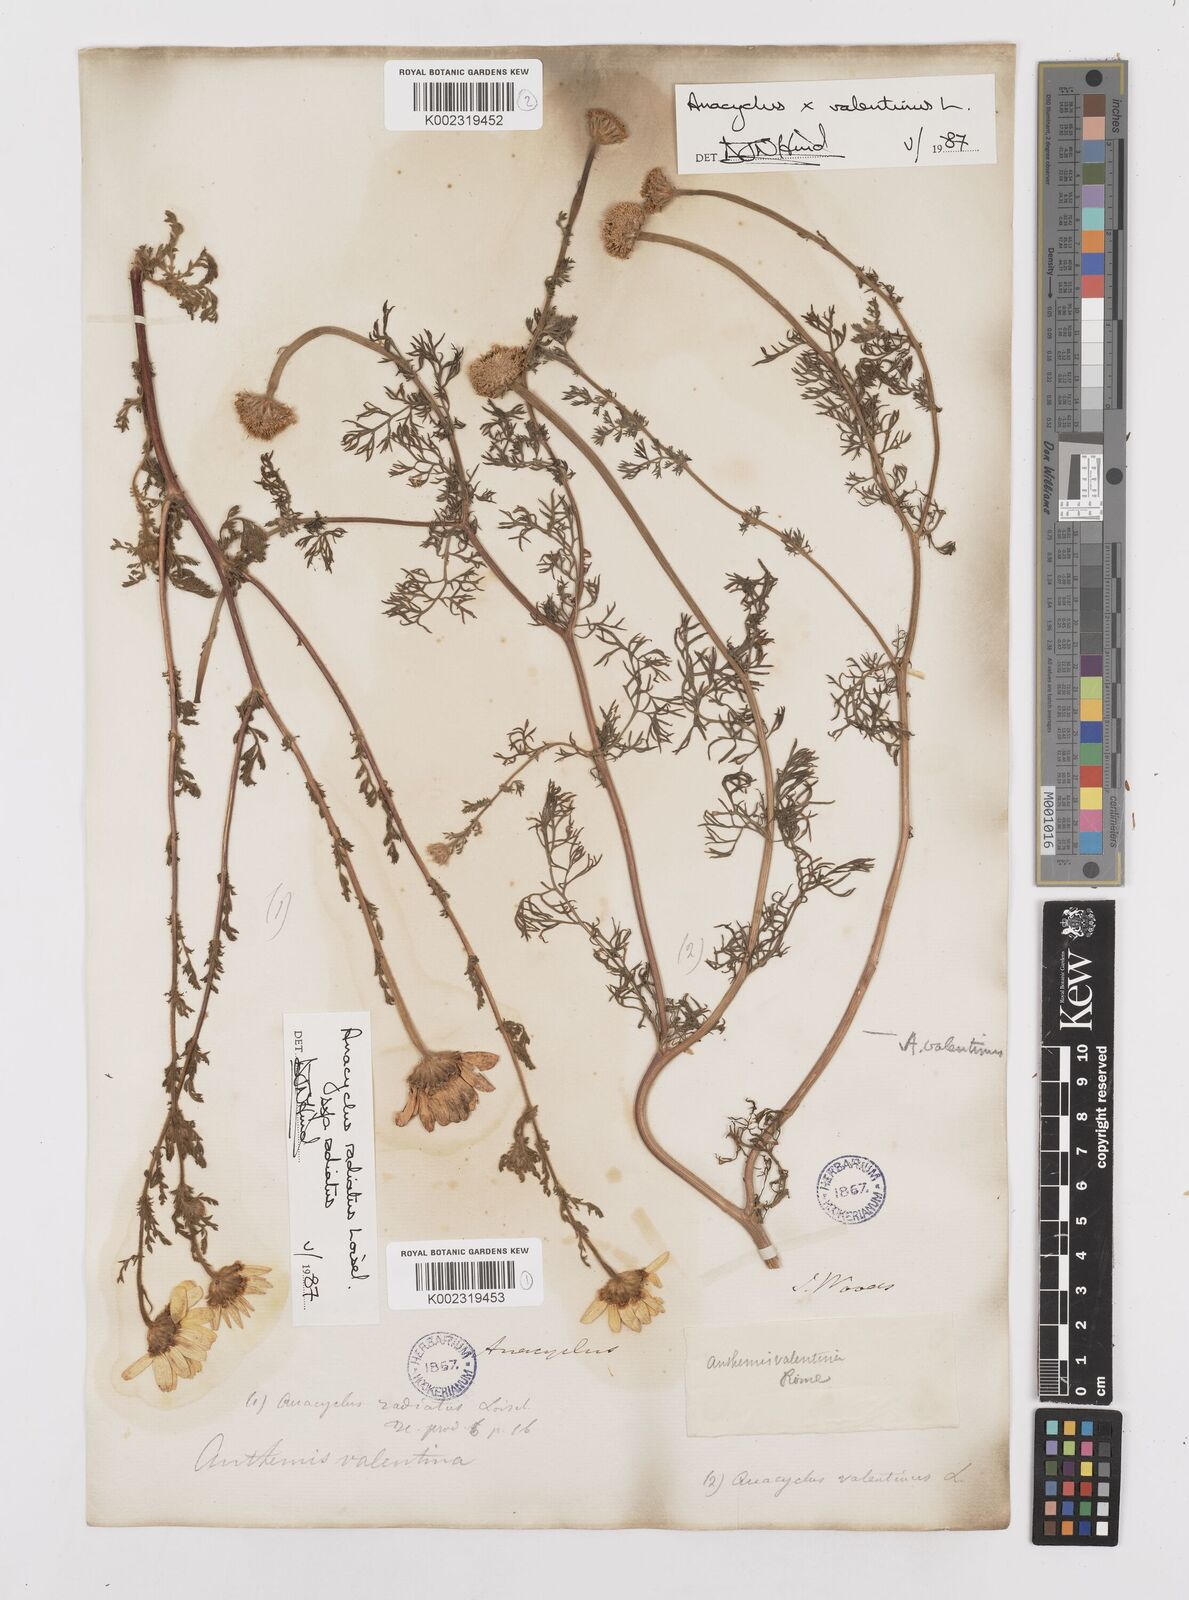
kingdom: Plantae
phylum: Tracheophyta
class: Magnoliopsida
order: Asterales
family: Asteraceae
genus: Anacyclus
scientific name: Anacyclus valentinus
